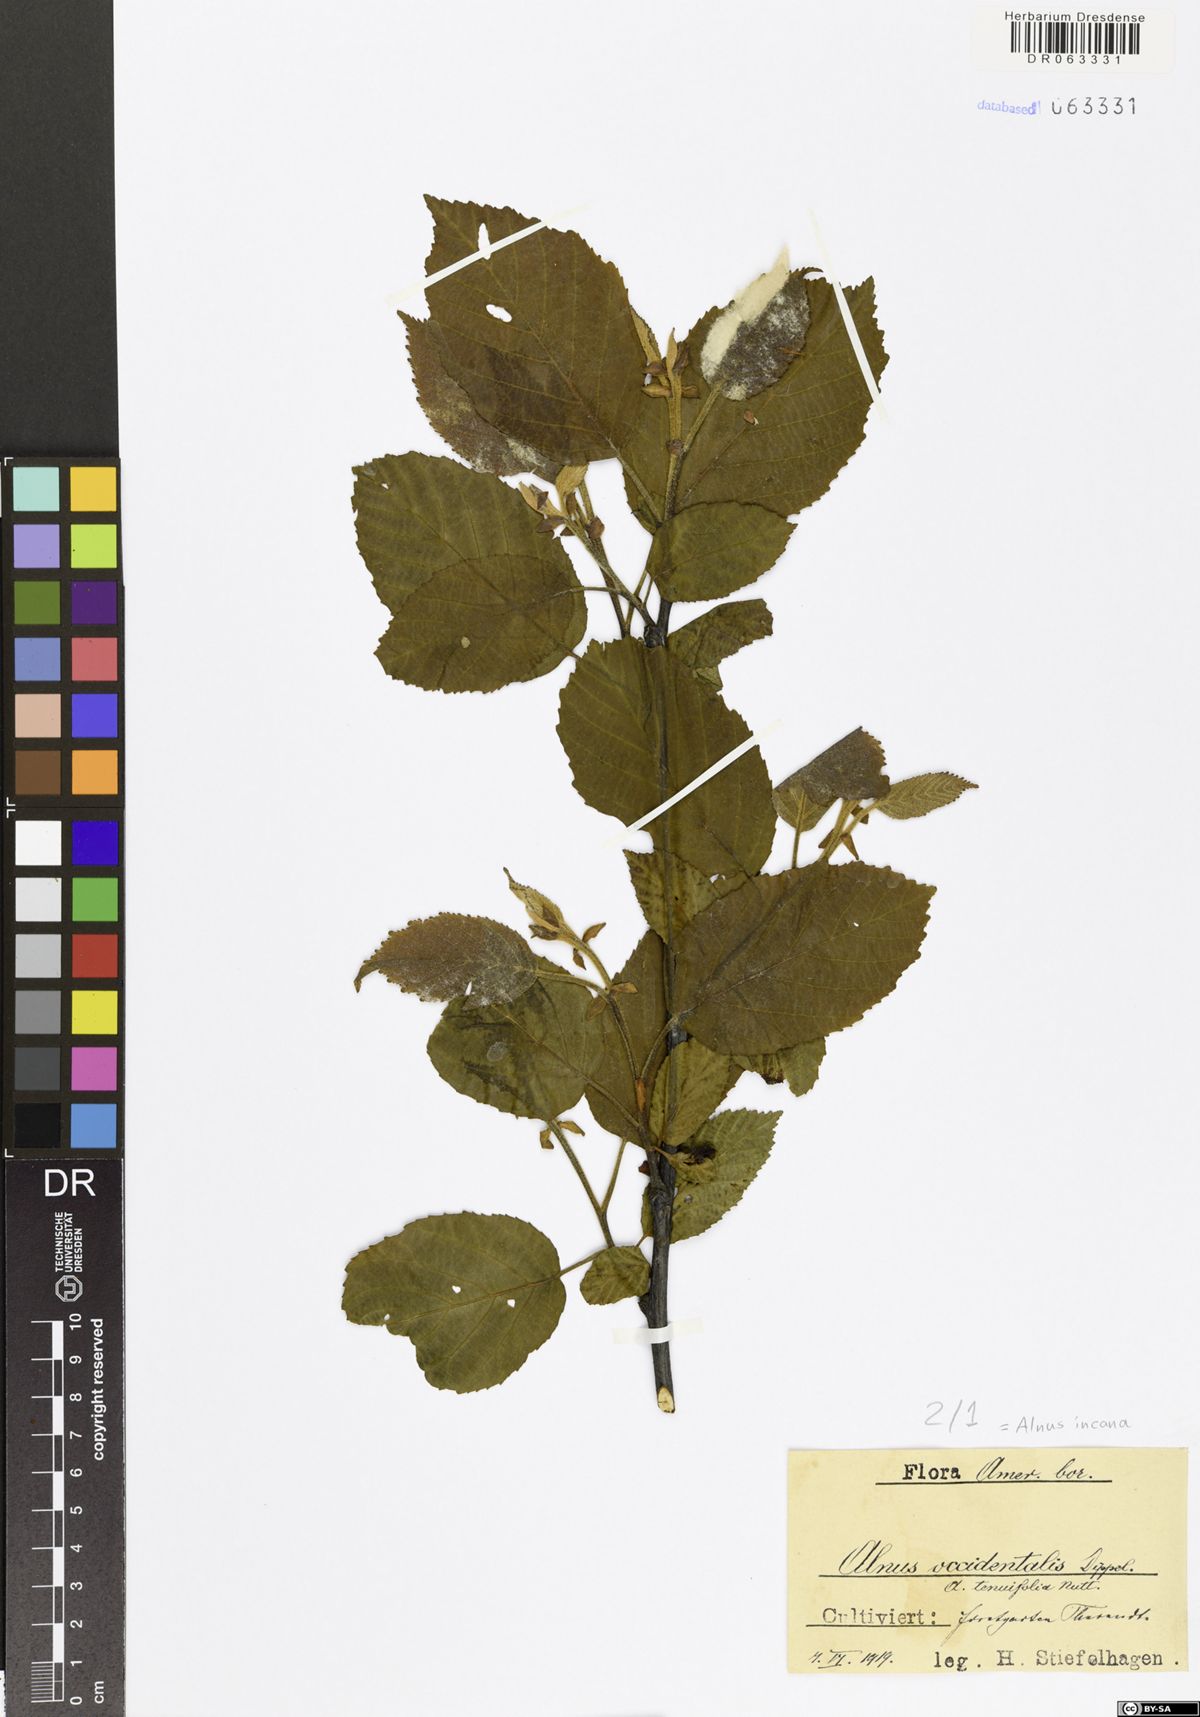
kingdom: Plantae
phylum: Tracheophyta
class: Magnoliopsida
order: Fagales
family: Betulaceae
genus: Alnus
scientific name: Alnus incana
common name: Grey alder
